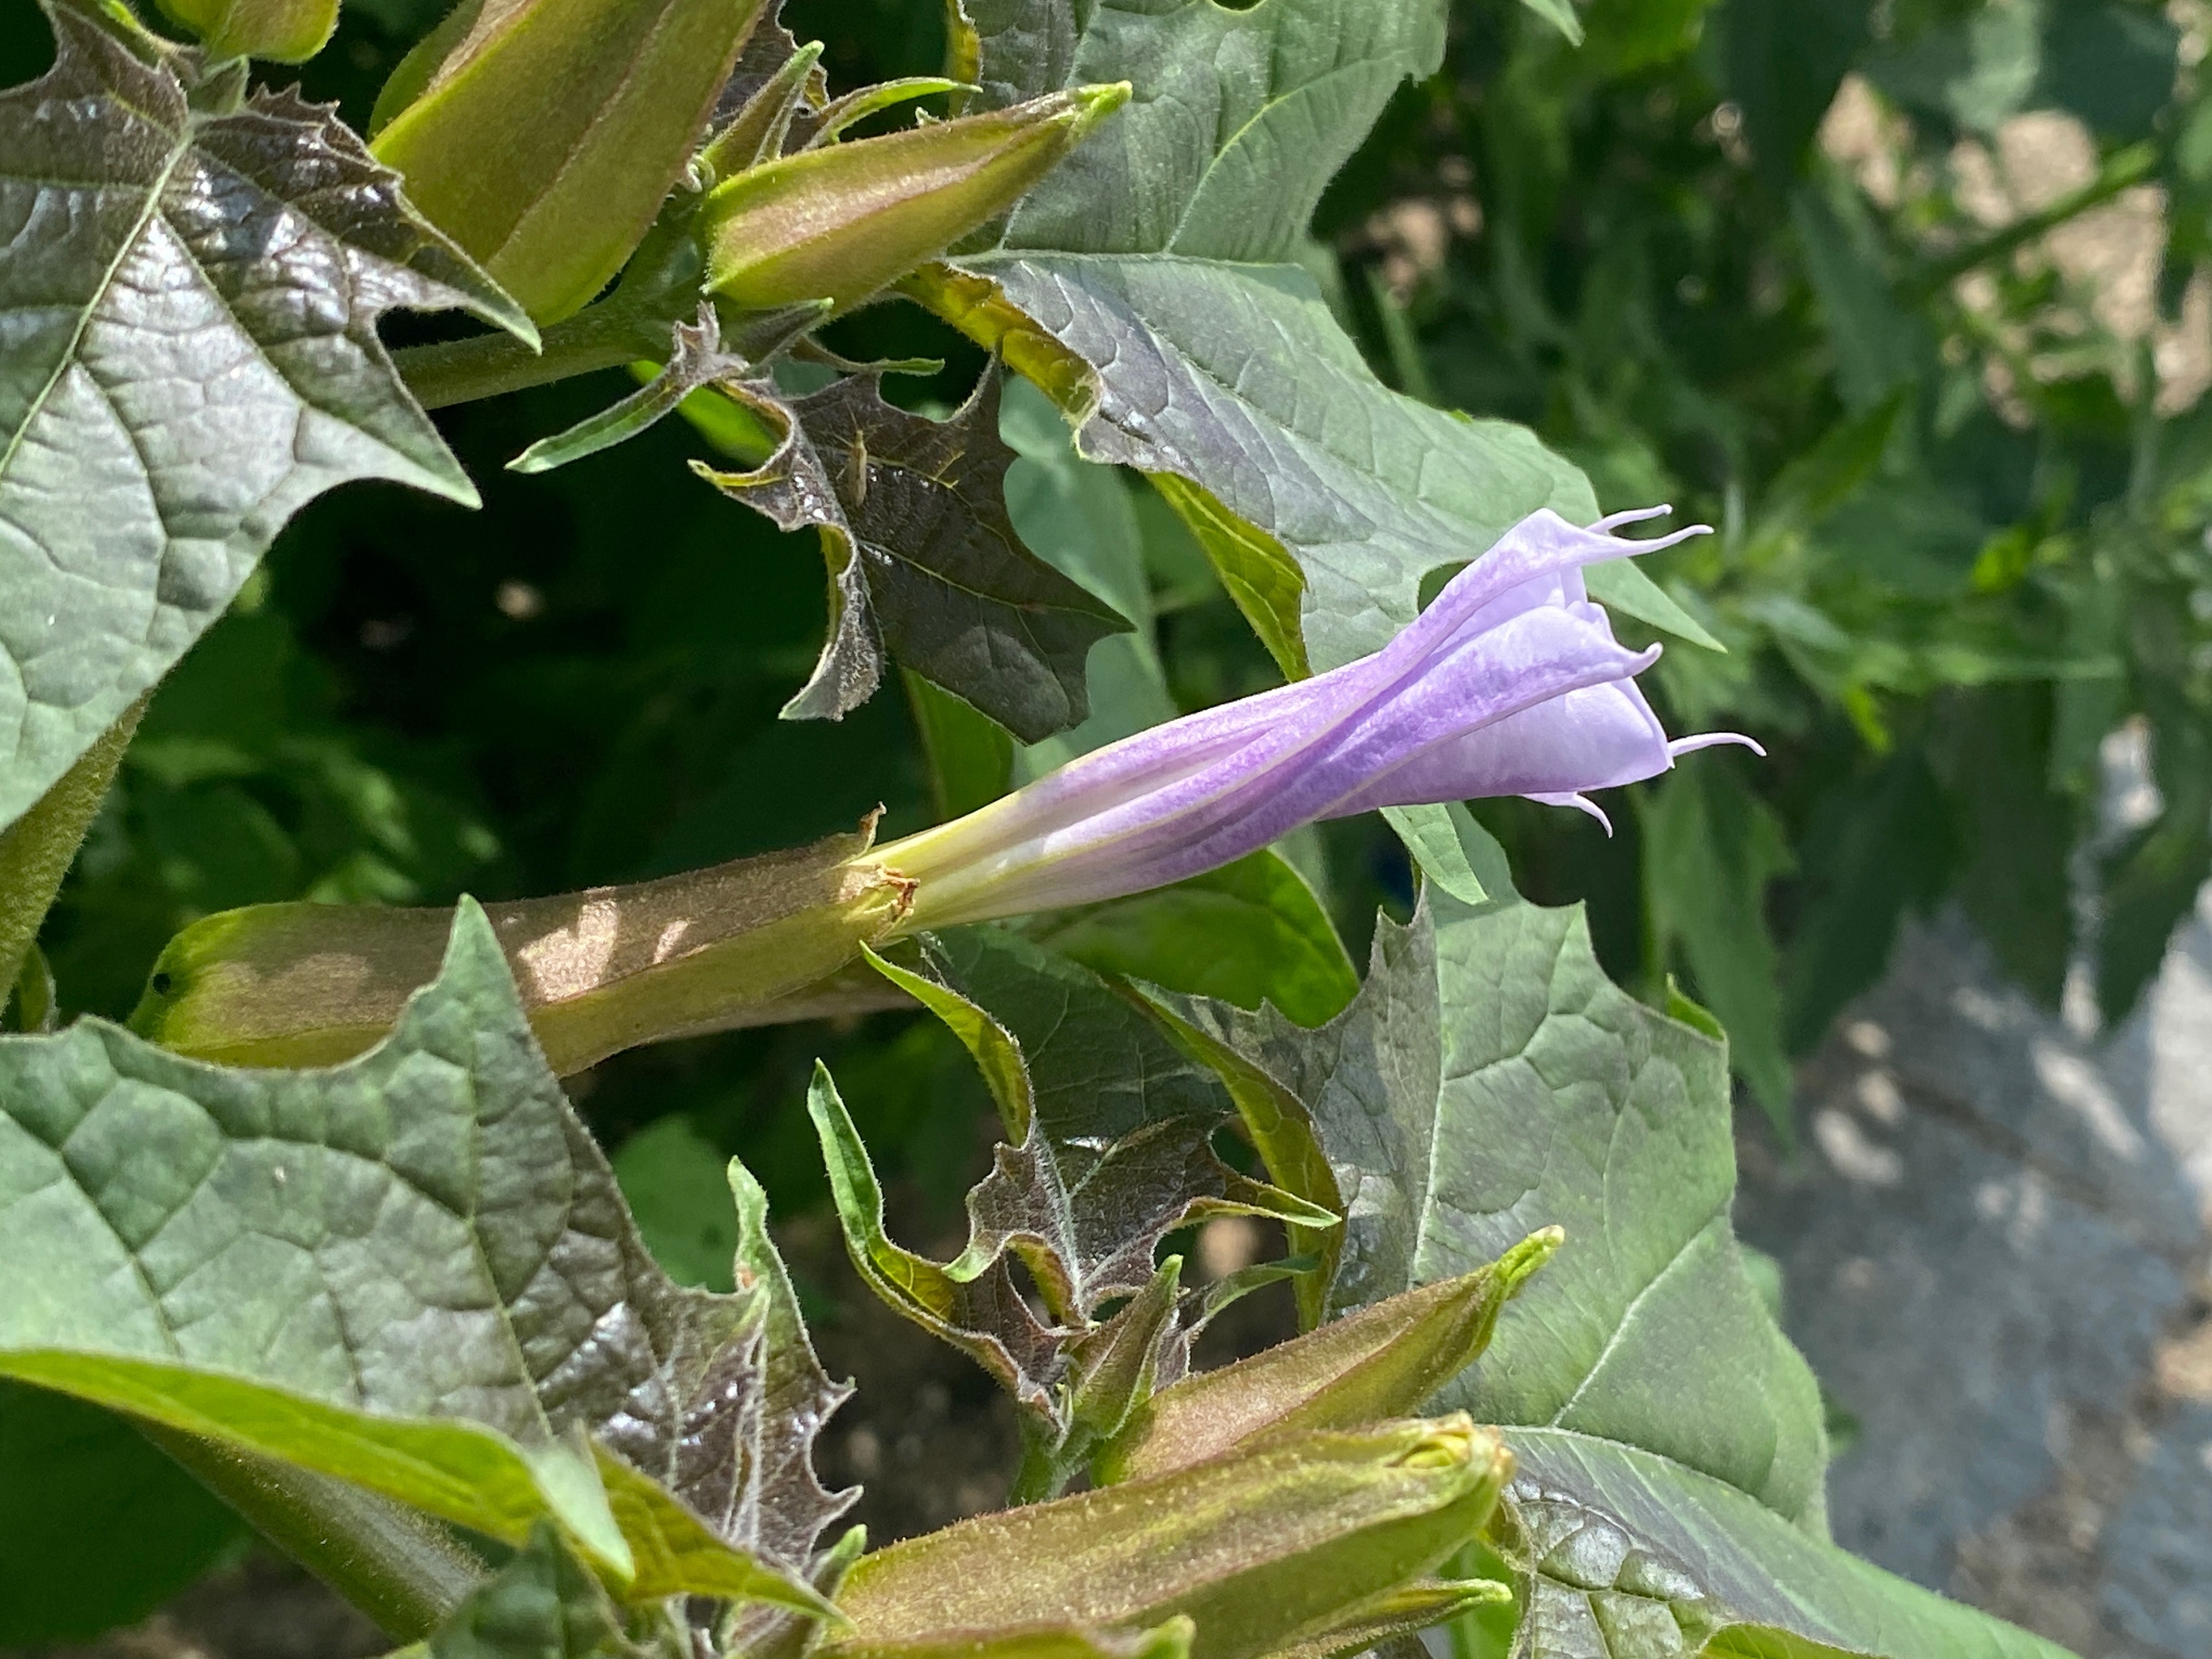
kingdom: Plantae
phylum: Tracheophyta
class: Magnoliopsida
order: Solanales
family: Solanaceae
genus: Datura
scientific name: Datura stramonium
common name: Blå pigæble
